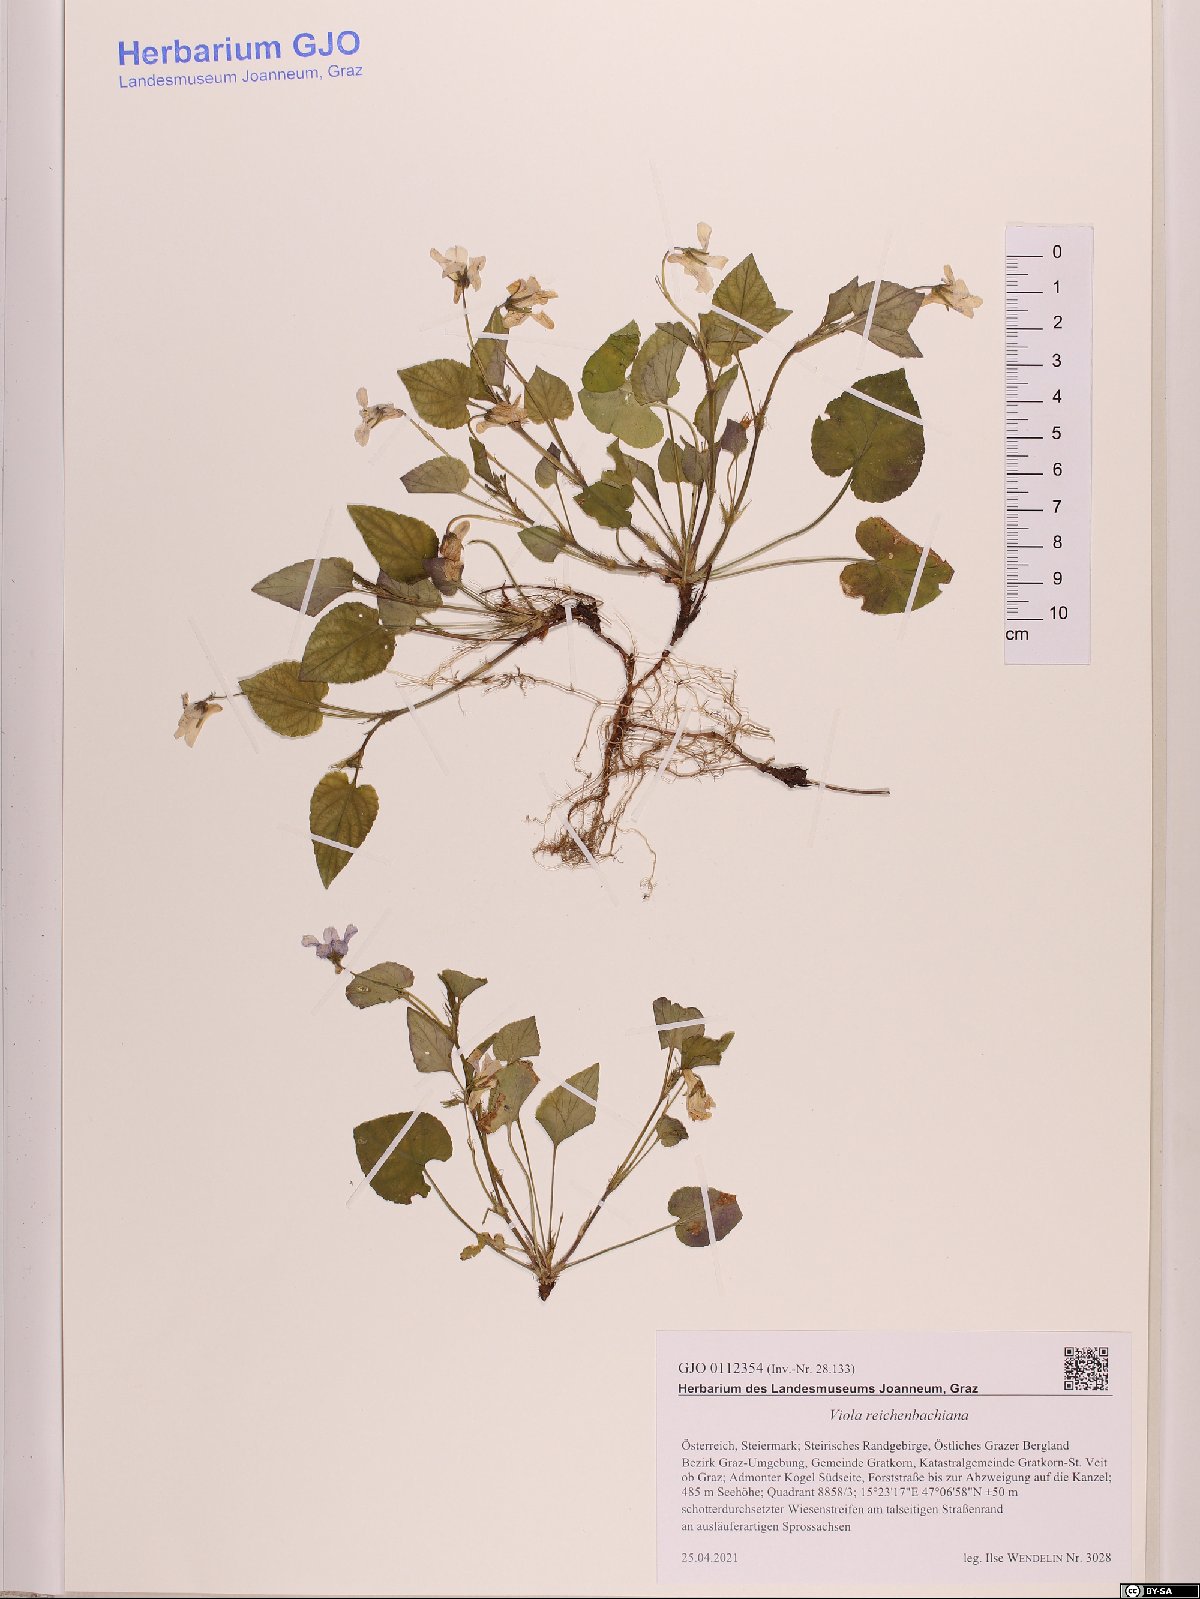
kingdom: Plantae
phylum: Tracheophyta
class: Magnoliopsida
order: Malpighiales
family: Violaceae
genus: Viola
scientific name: Viola reichenbachiana
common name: Early dog-violet
